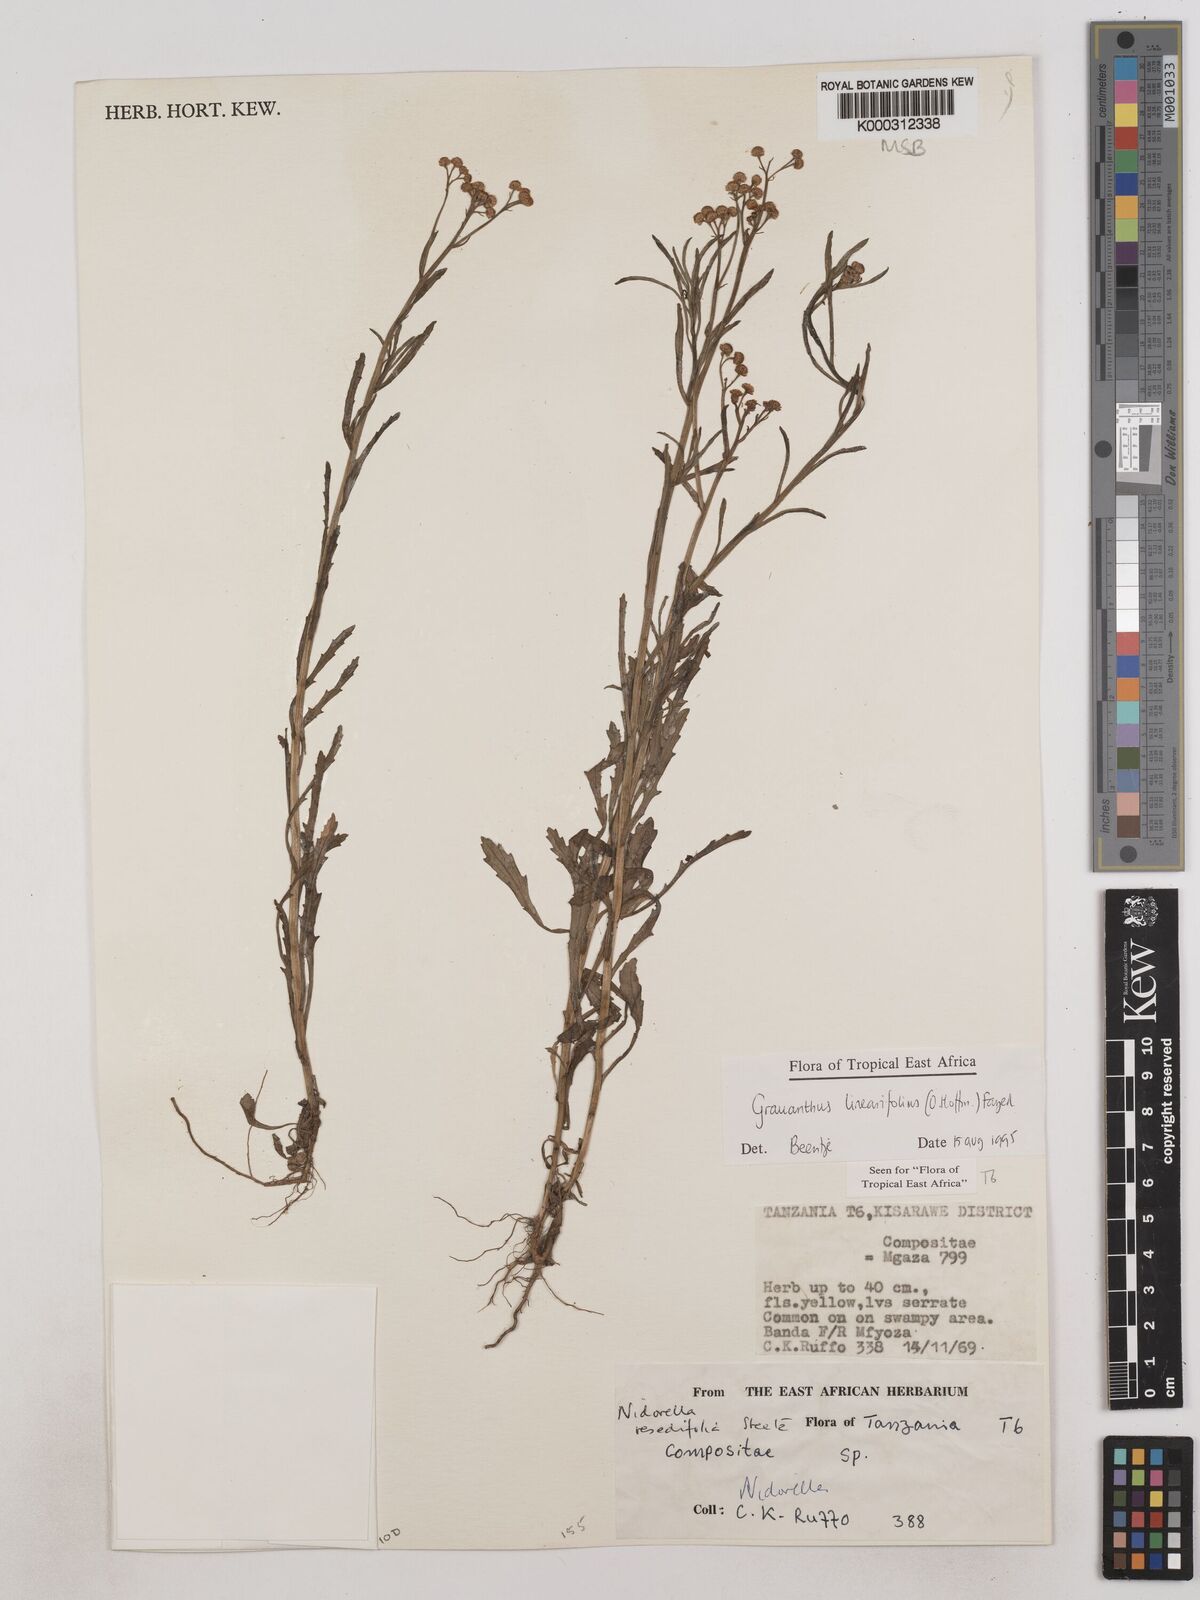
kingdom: Plantae
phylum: Tracheophyta
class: Magnoliopsida
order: Asterales
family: Asteraceae
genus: Grauanthus
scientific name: Grauanthus linearifolius
